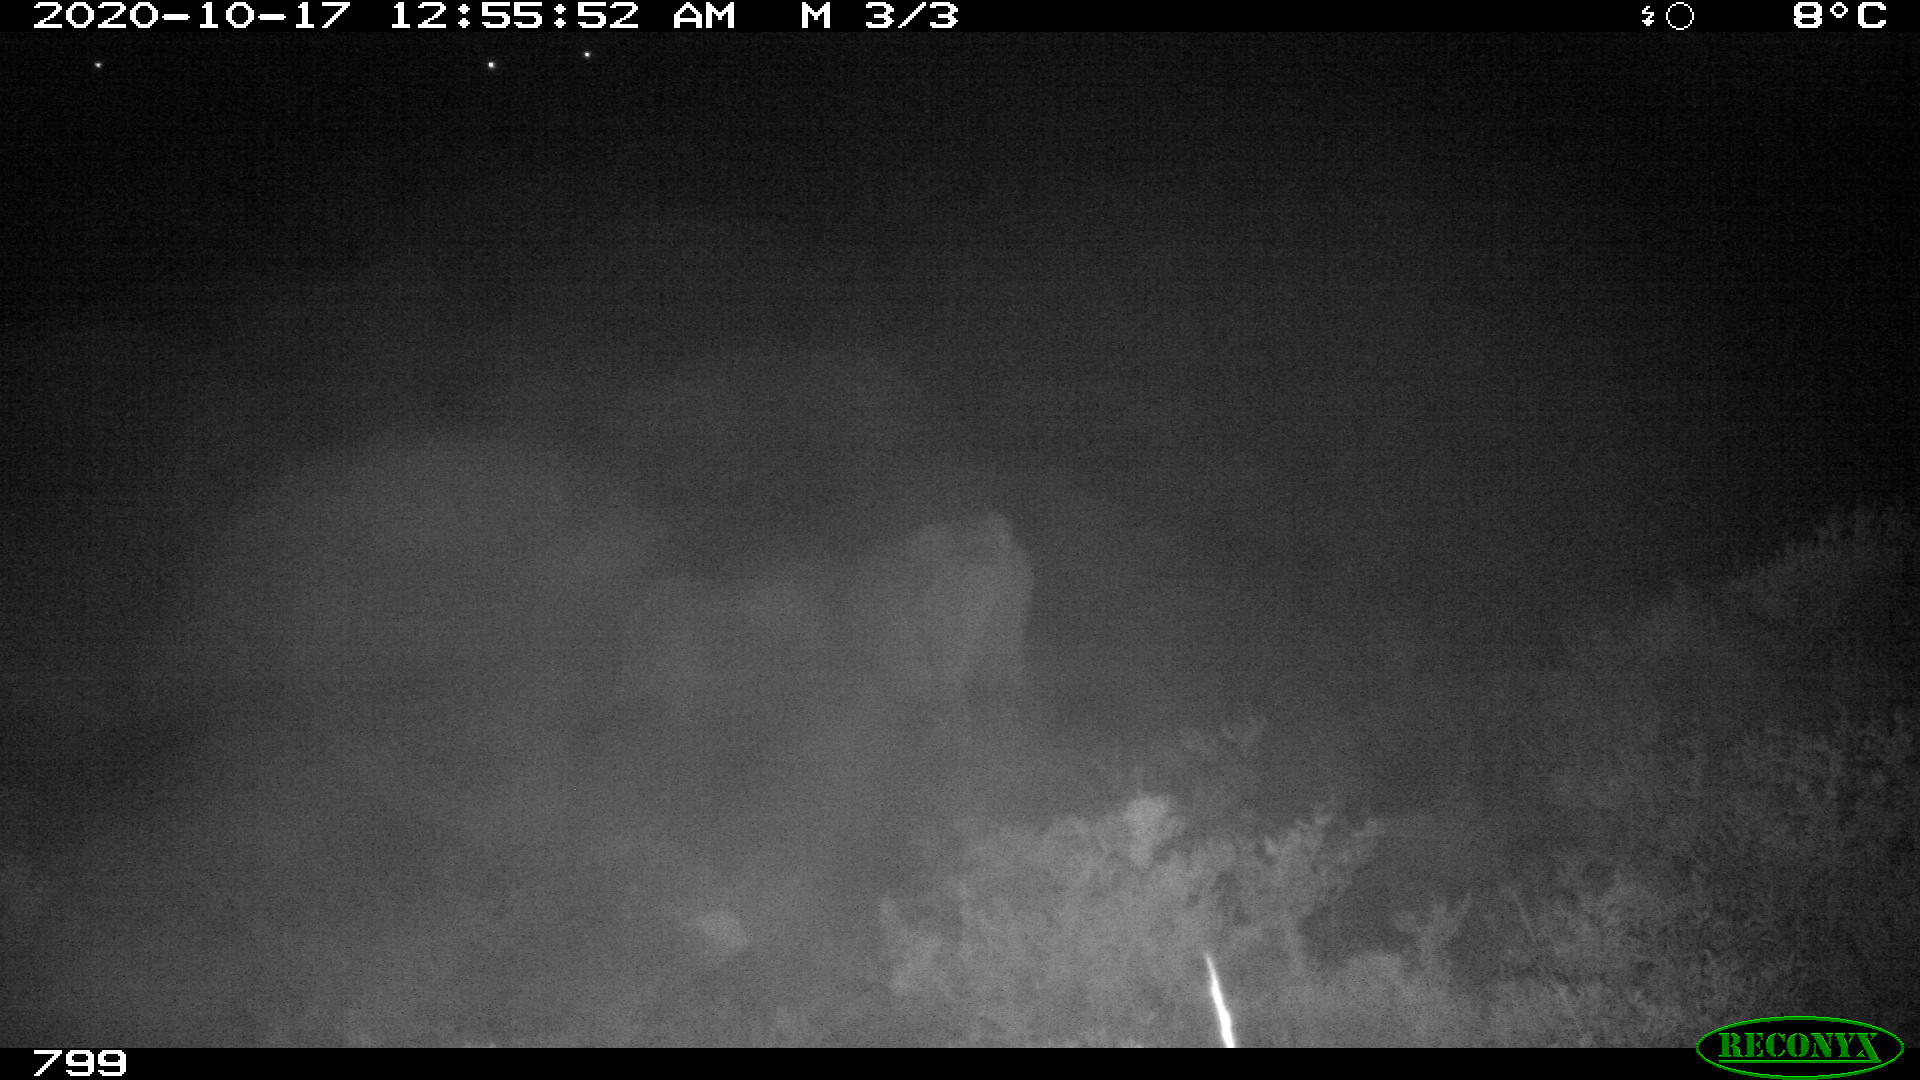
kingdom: Animalia
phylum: Chordata
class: Mammalia
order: Artiodactyla
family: Bovidae
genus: Bos
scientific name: Bos taurus
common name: Domesticated cattle
